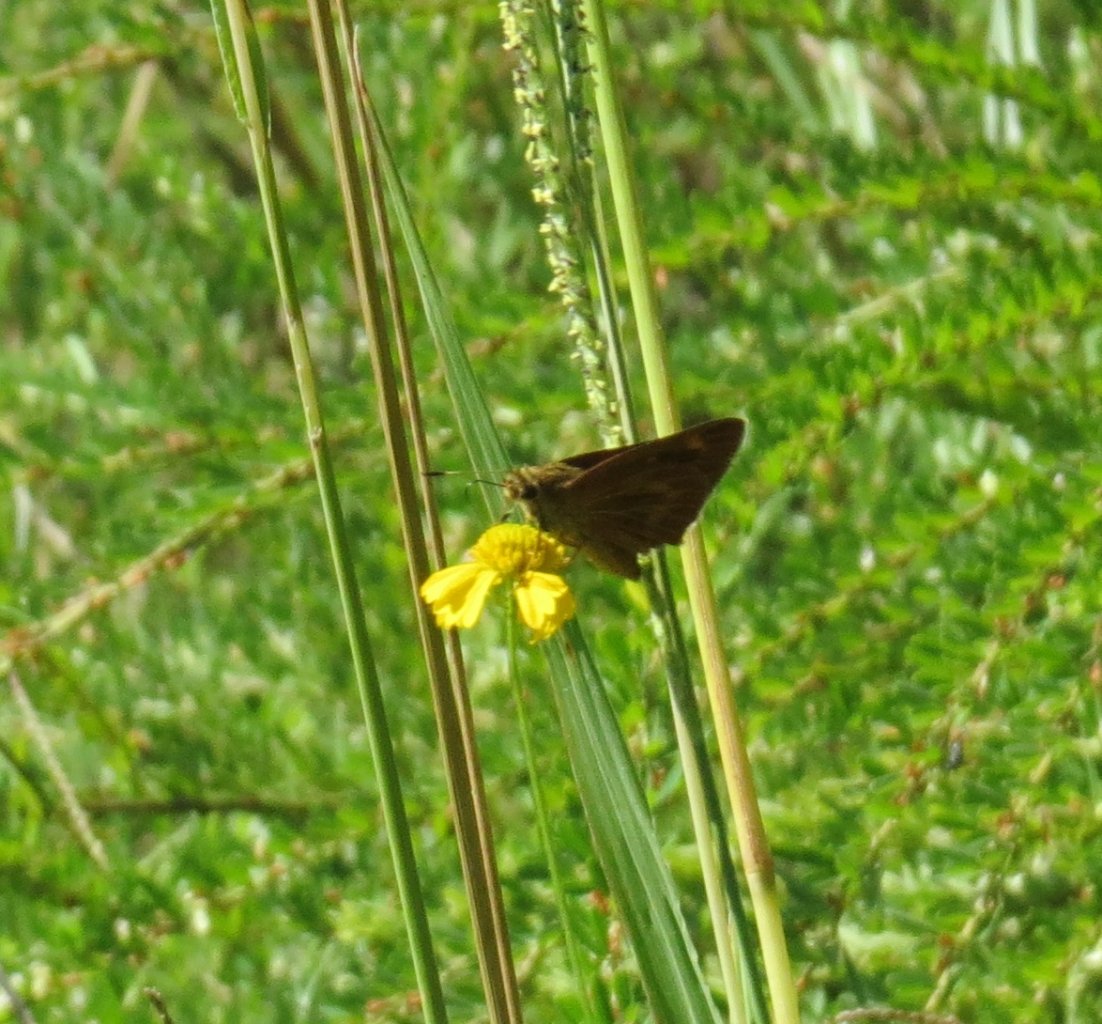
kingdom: Animalia
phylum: Arthropoda
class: Insecta
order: Lepidoptera
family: Hesperiidae
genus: Problema
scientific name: Problema byssus
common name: Byssus Skipper
